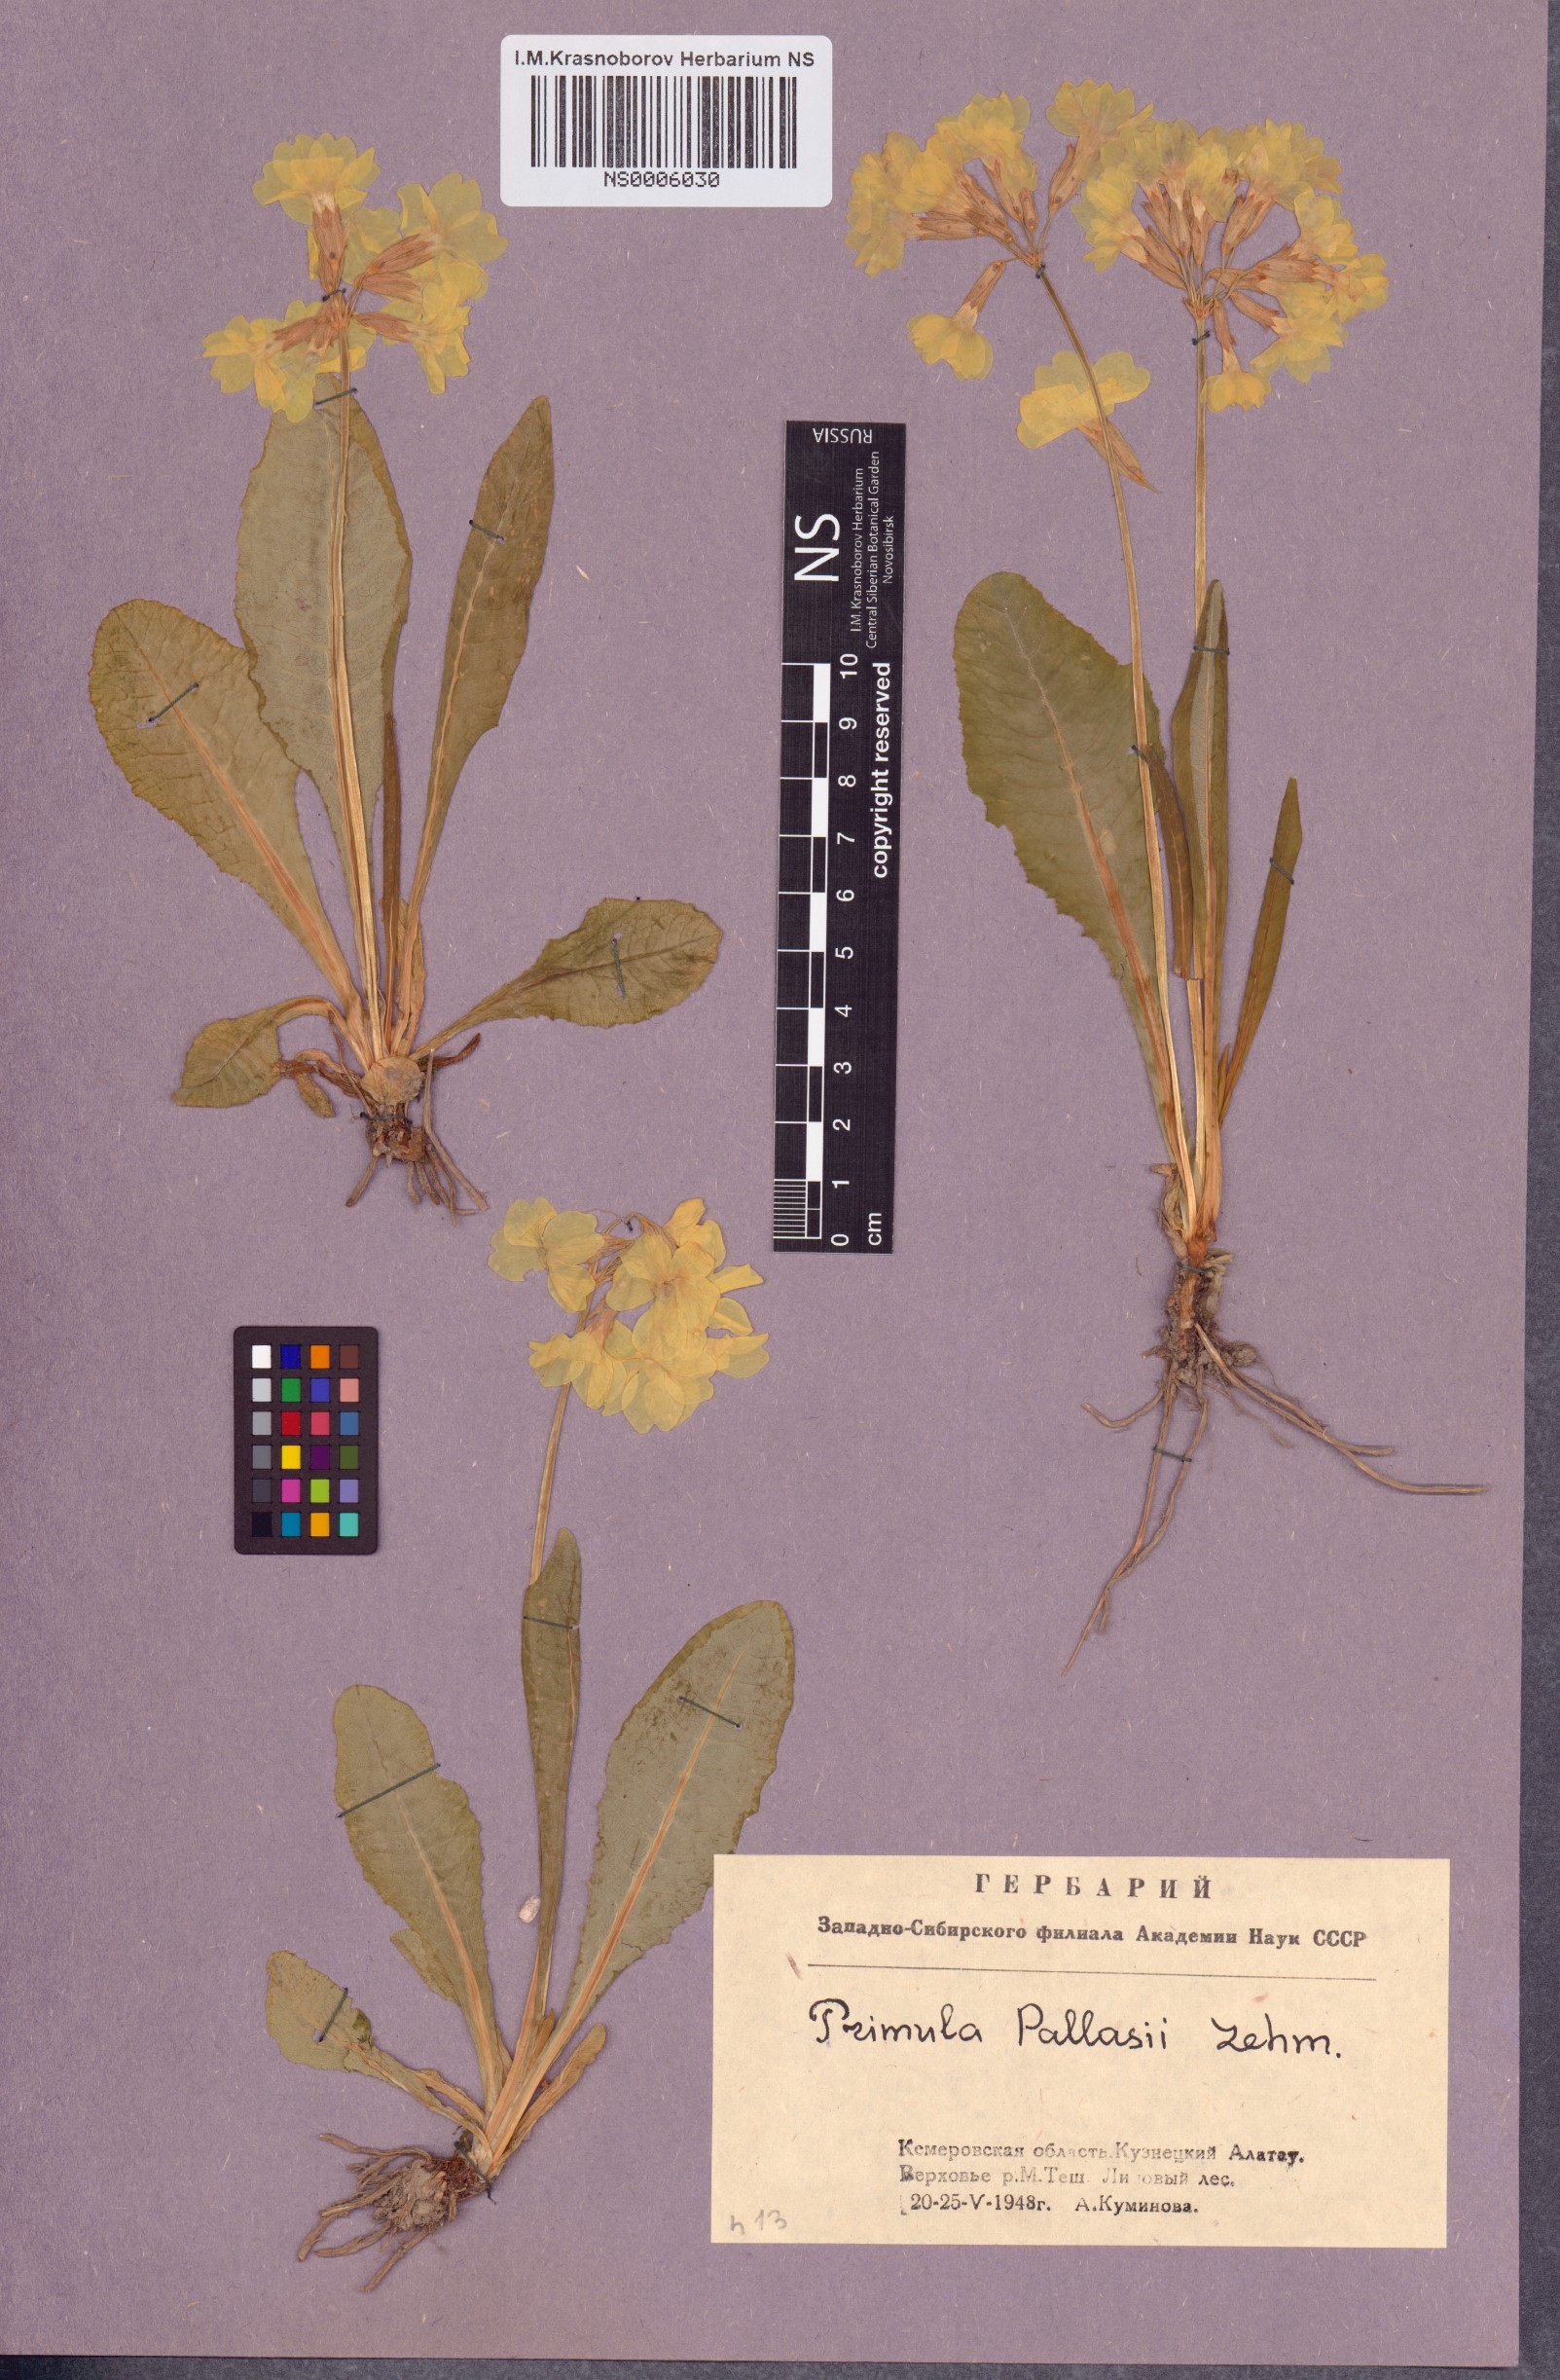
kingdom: Plantae
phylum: Tracheophyta
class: Magnoliopsida
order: Ericales
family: Primulaceae
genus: Primula
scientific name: Primula elatior
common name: Oxlip
